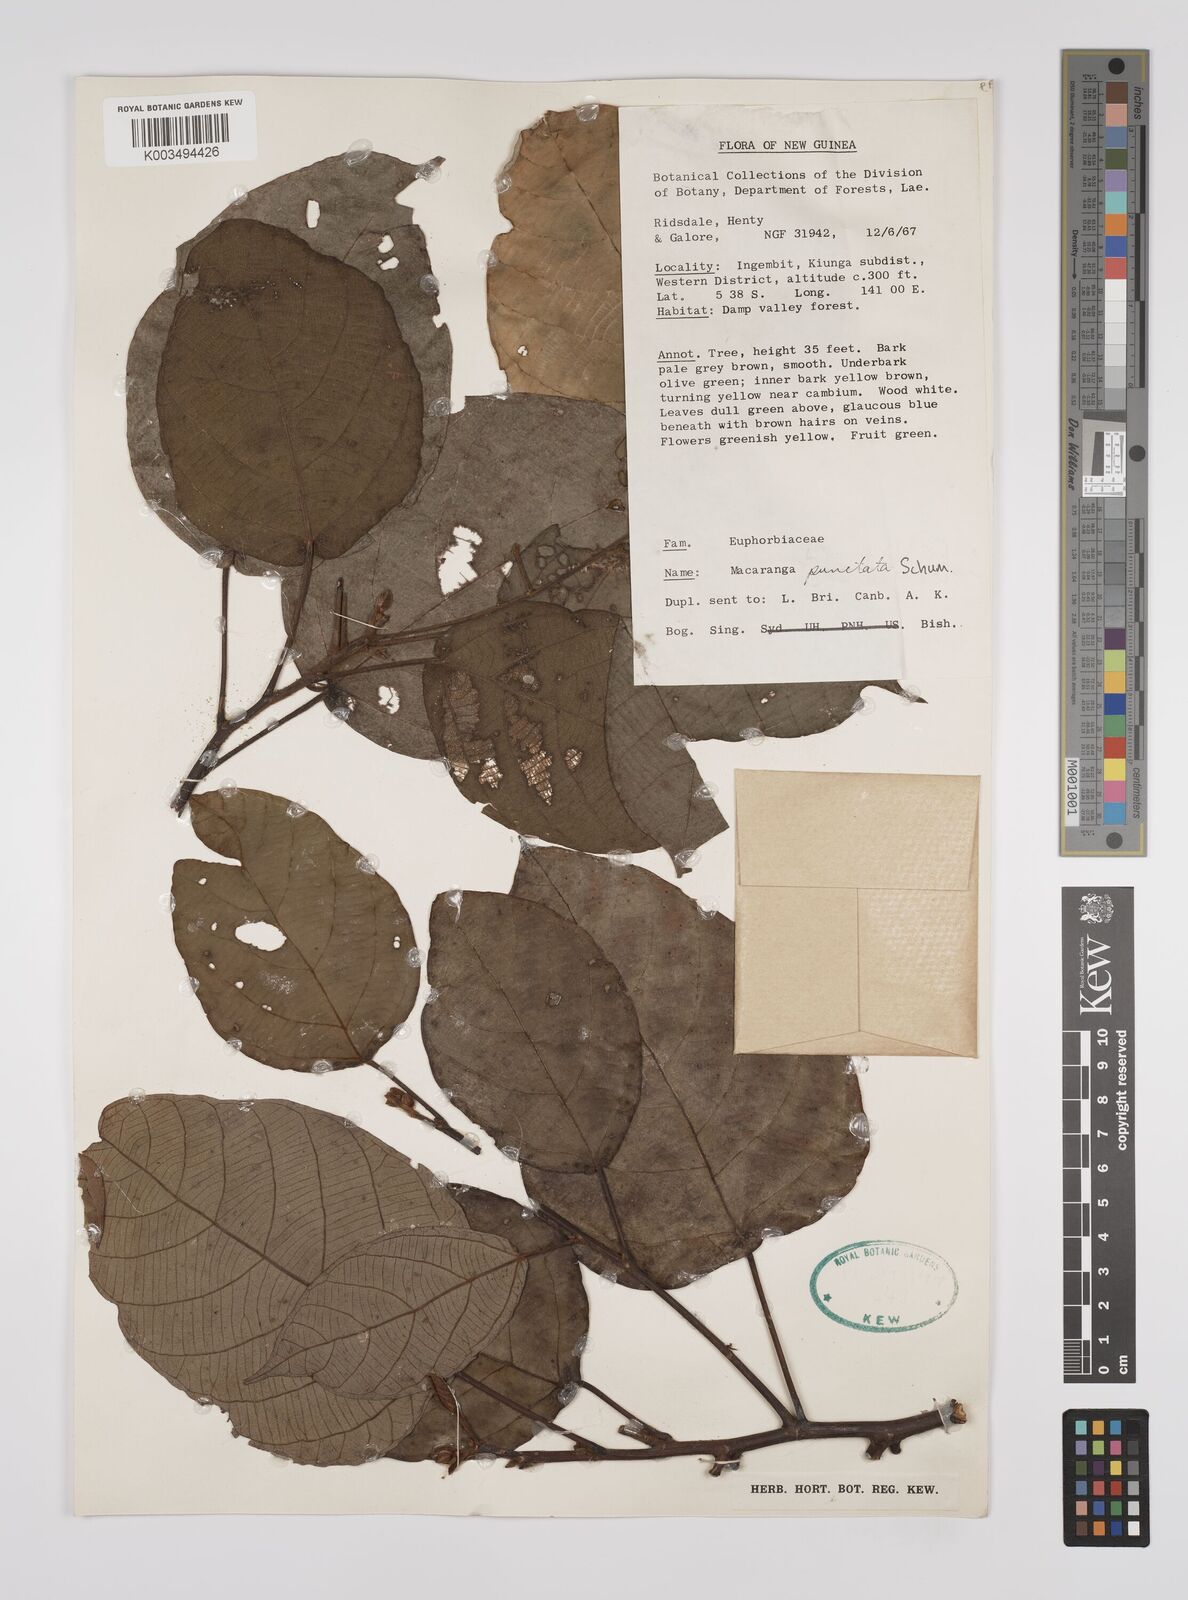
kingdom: Plantae
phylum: Tracheophyta
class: Magnoliopsida
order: Malpighiales
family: Euphorbiaceae
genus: Macaranga
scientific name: Macaranga punctata
